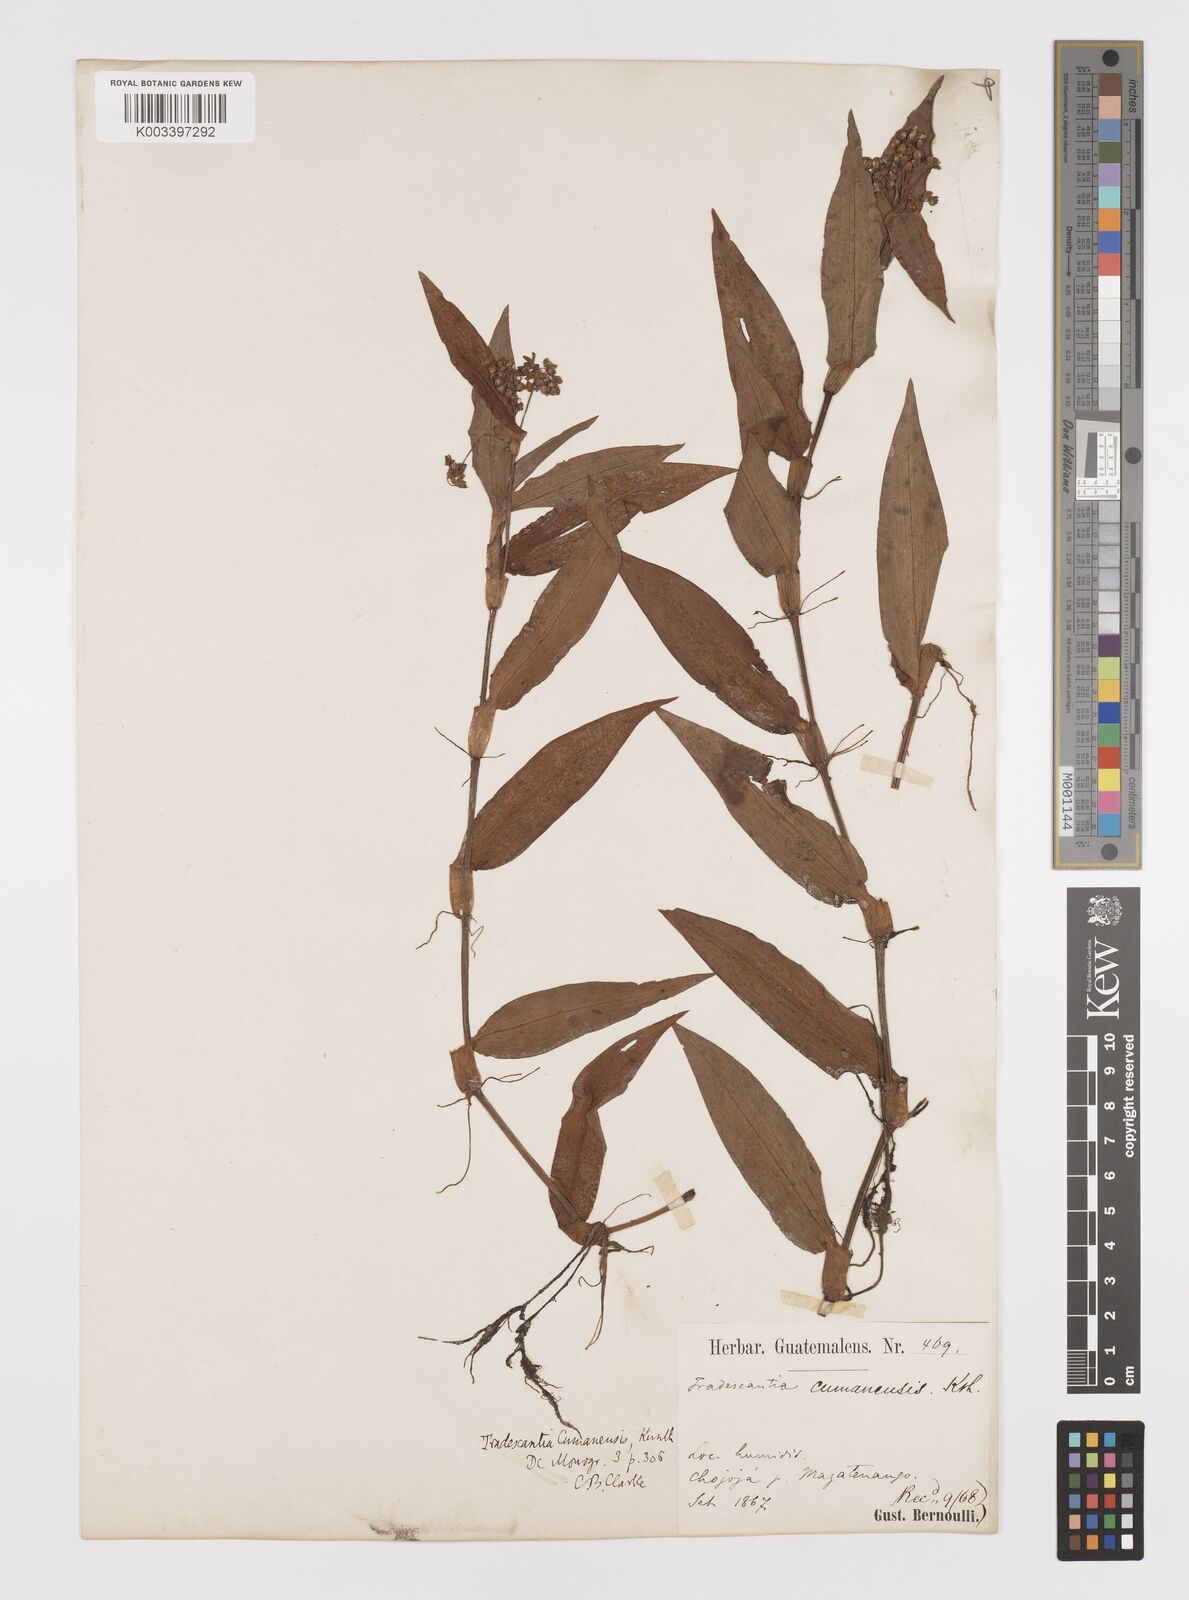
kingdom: Plantae
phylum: Tracheophyta
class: Liliopsida
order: Commelinales
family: Commelinaceae
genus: Callisia
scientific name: Callisia serrulata
